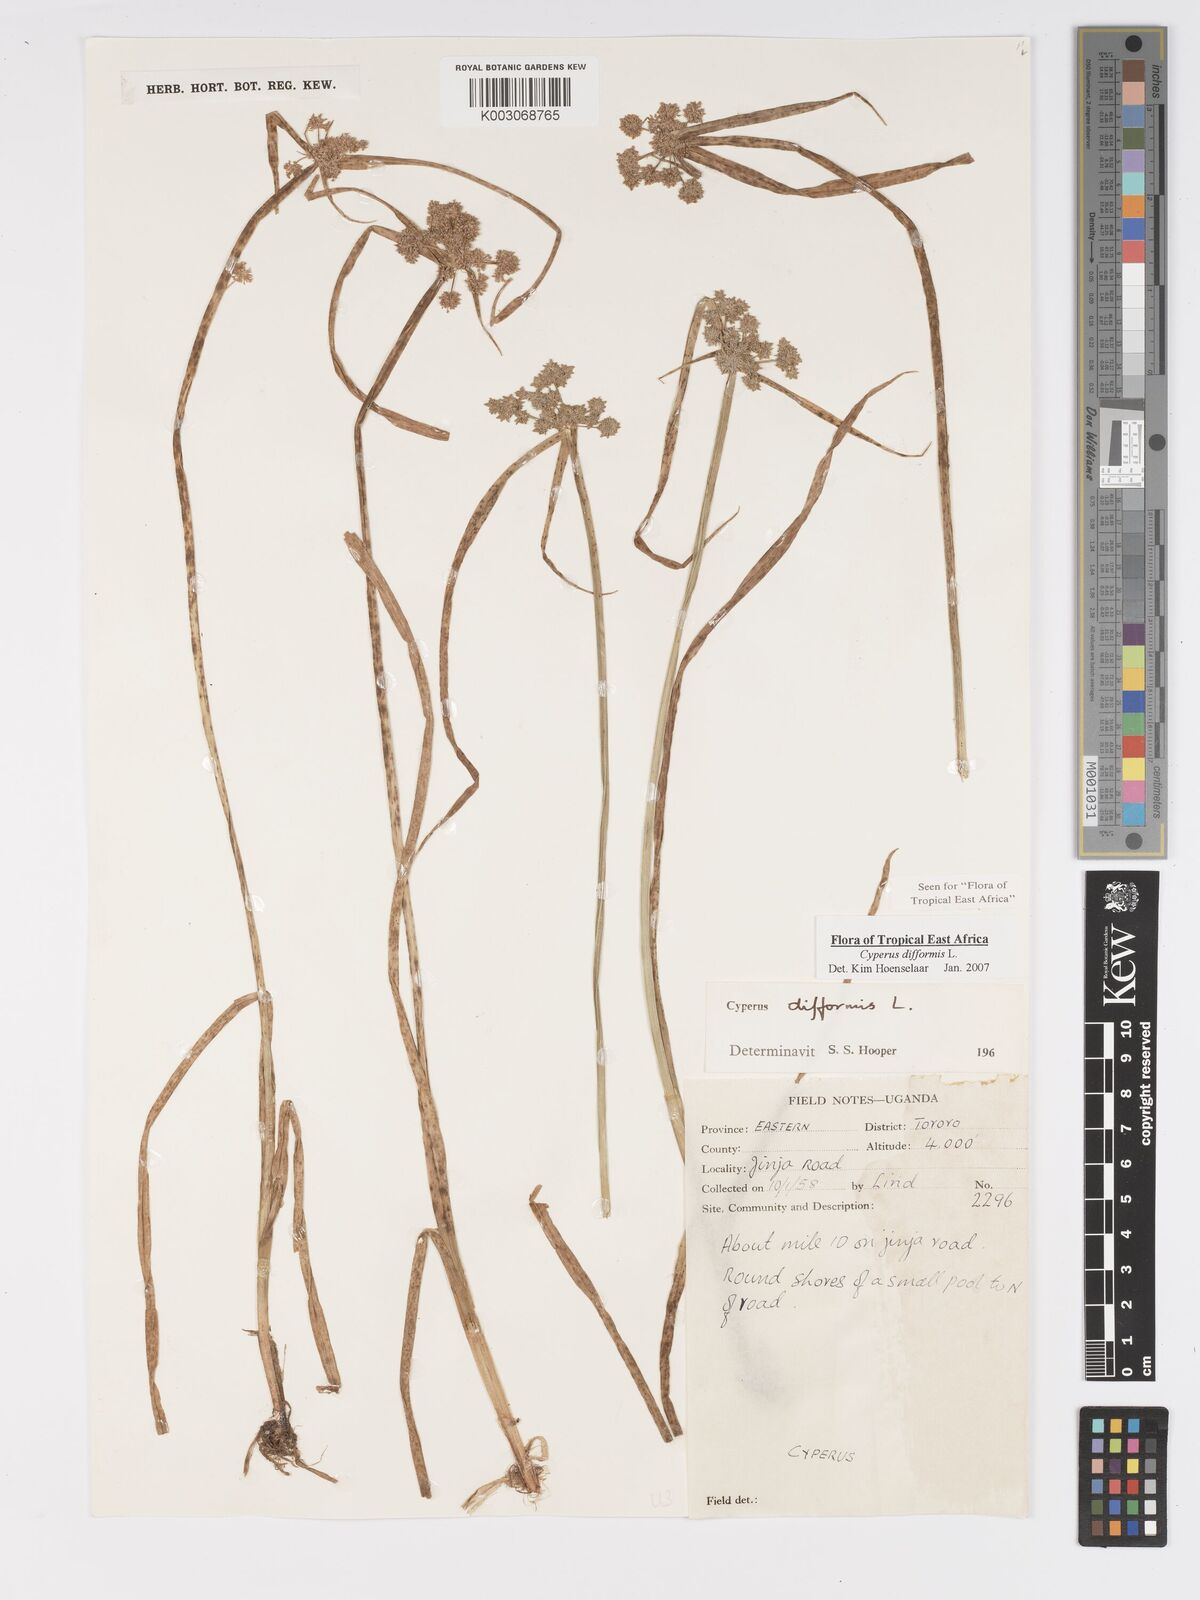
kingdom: Plantae
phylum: Tracheophyta
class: Liliopsida
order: Poales
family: Cyperaceae
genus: Cyperus
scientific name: Cyperus difformis
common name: Variable flatsedge
